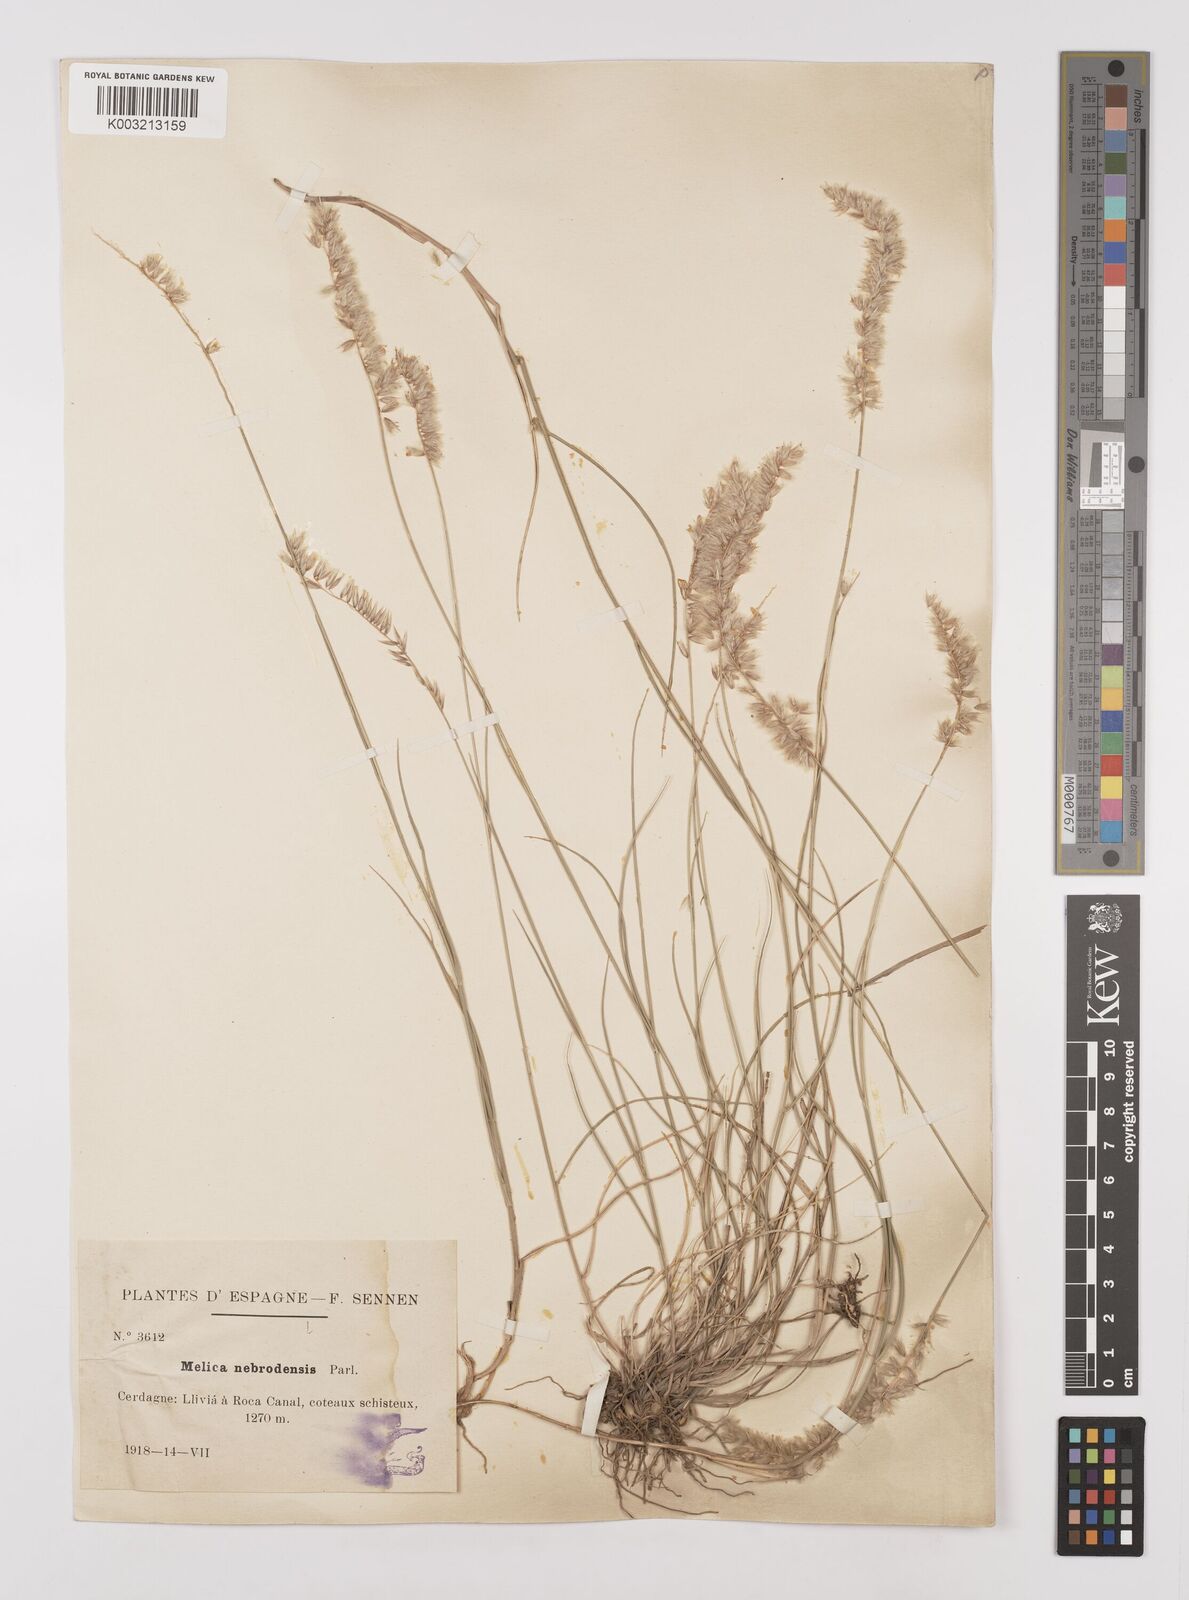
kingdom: Plantae
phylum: Tracheophyta
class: Liliopsida
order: Poales
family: Poaceae
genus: Melica
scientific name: Melica ciliata
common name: Hairy melicgrass
